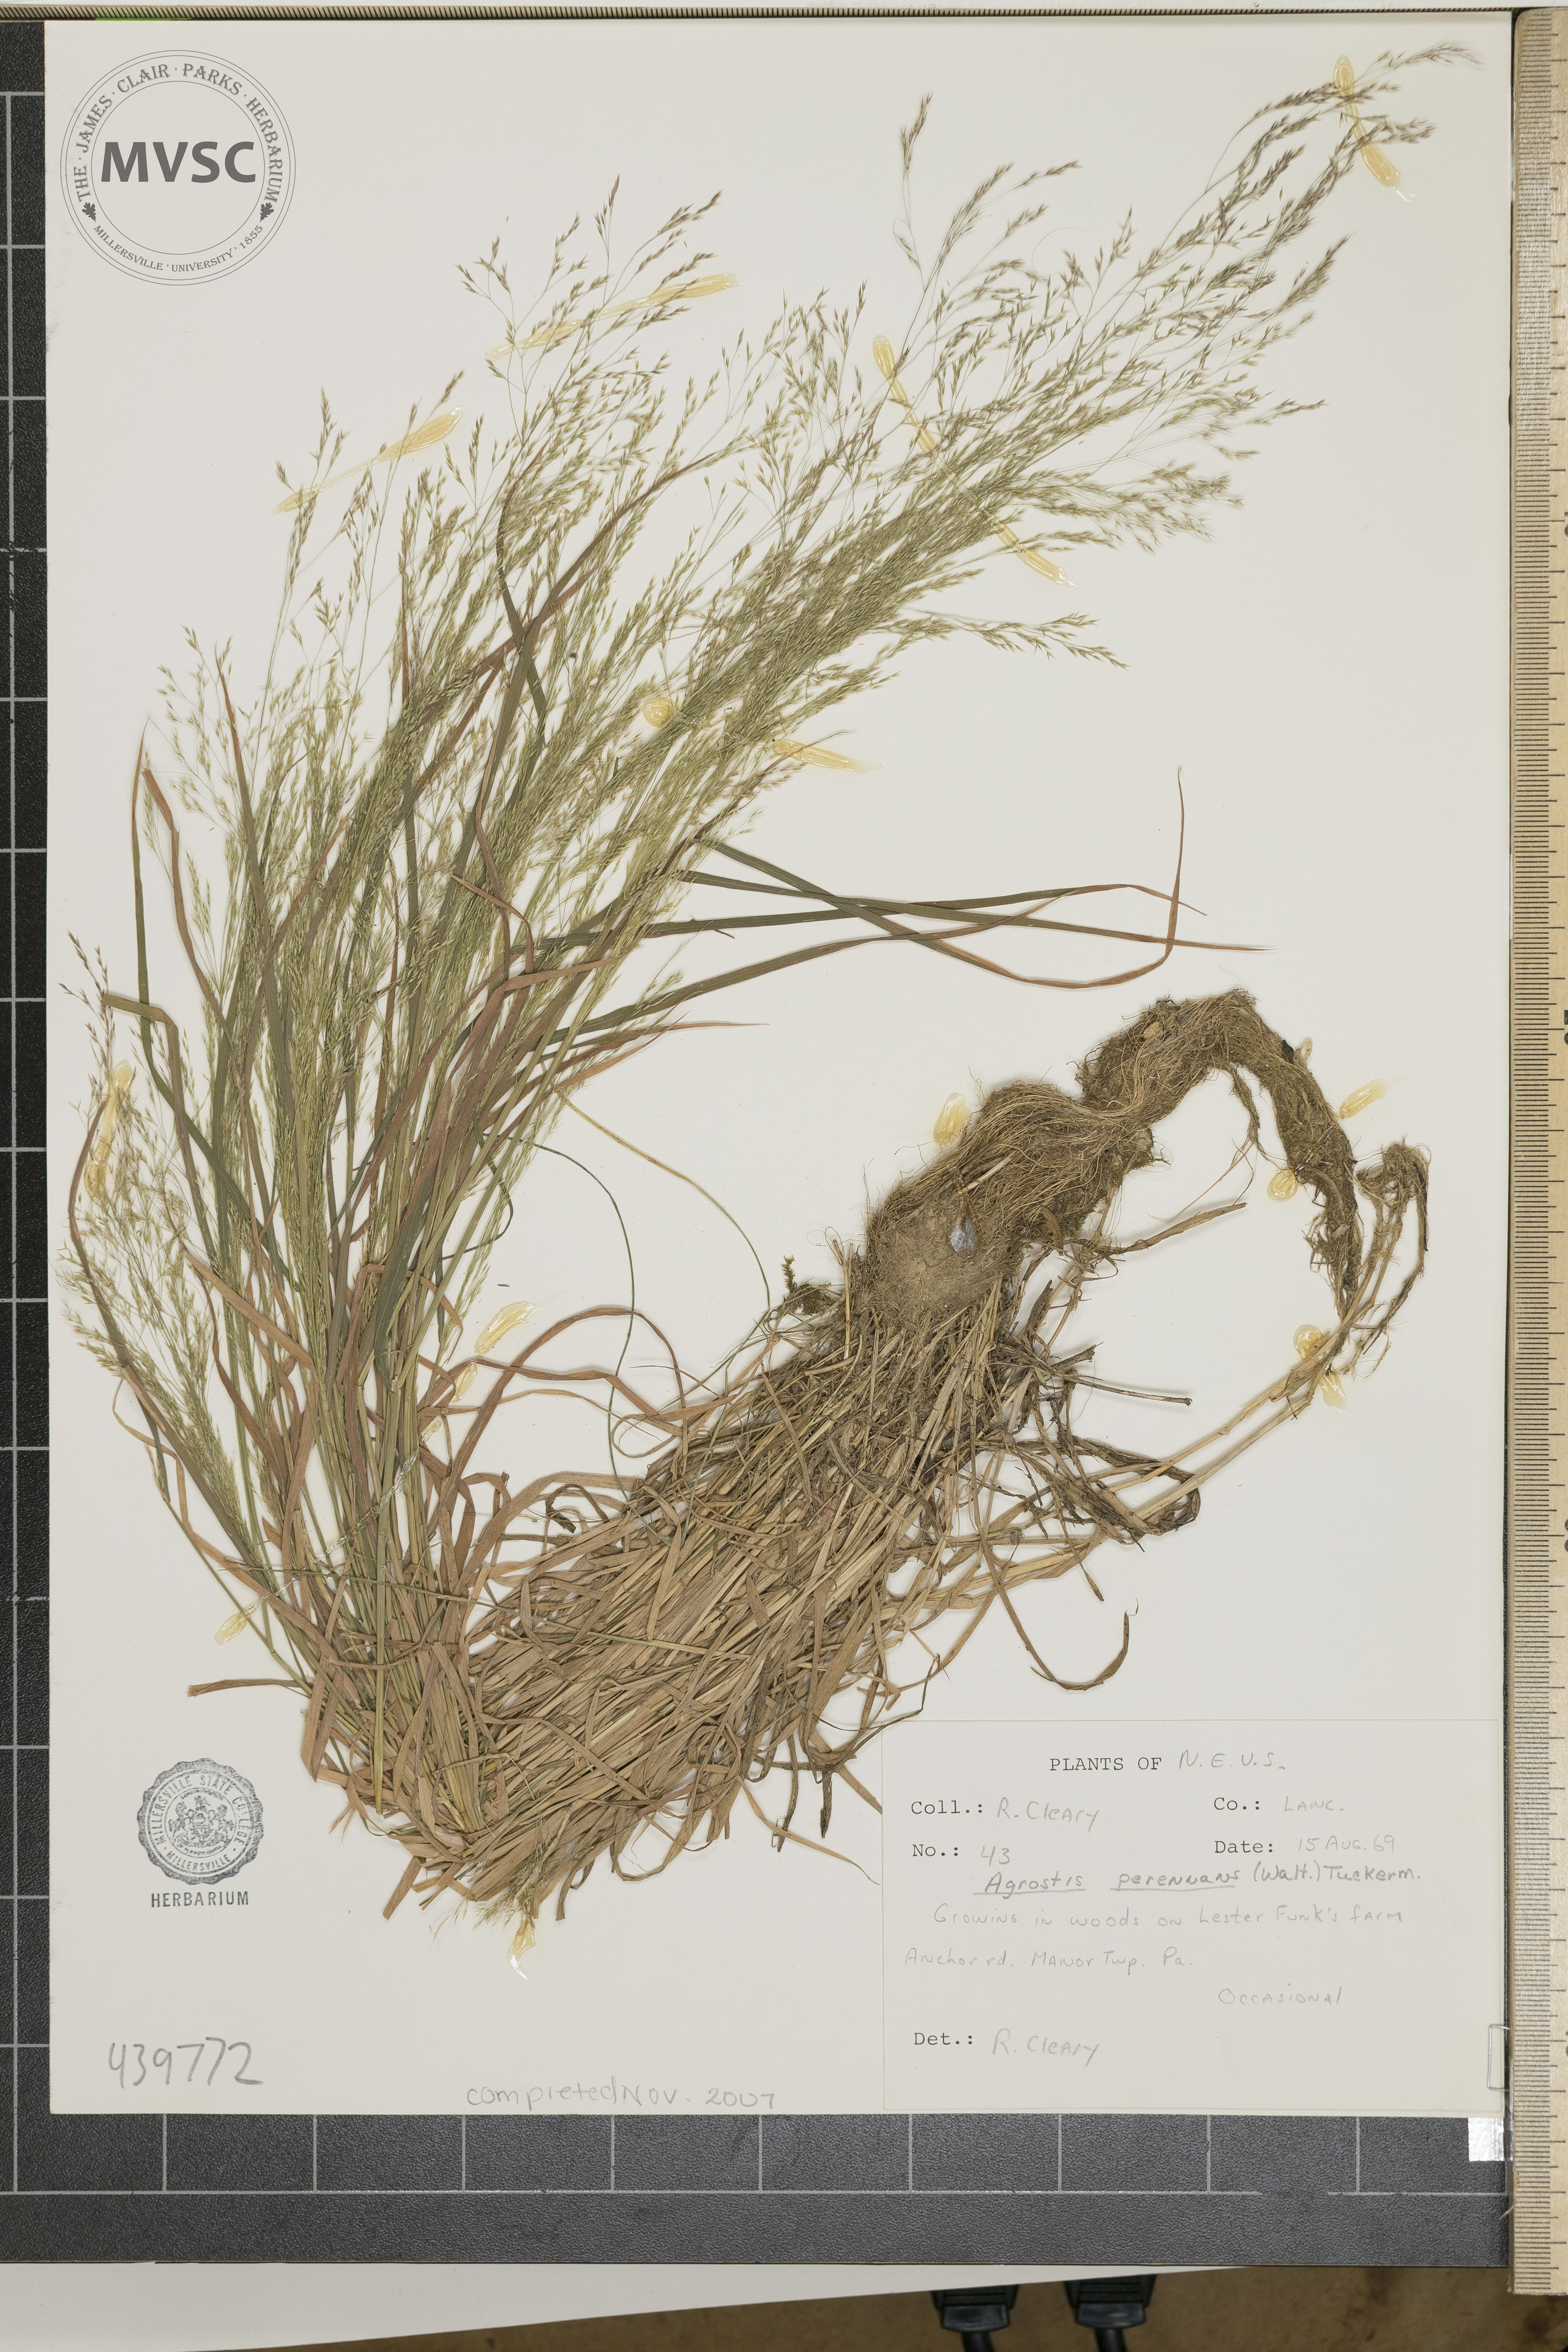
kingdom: Plantae
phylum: Tracheophyta
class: Liliopsida
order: Poales
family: Poaceae
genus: Agrostis
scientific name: Agrostis perennans
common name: Autumn bent
